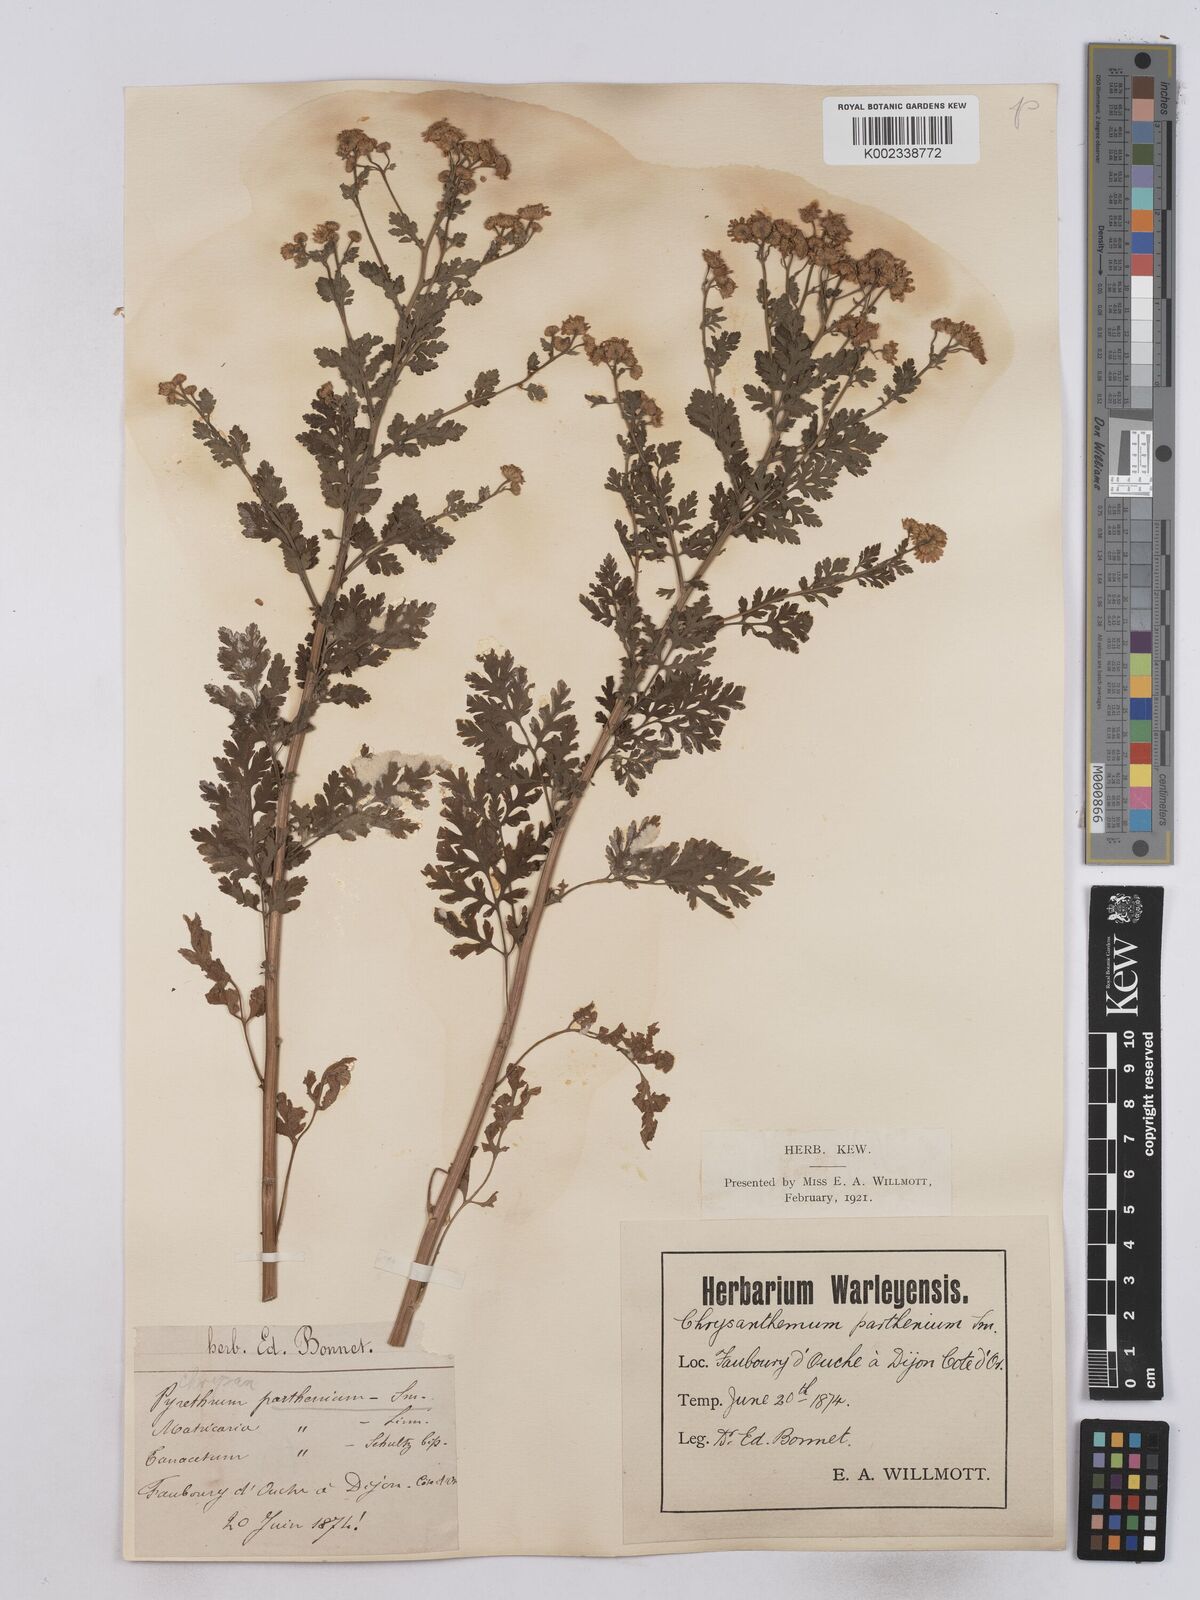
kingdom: Plantae
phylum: Tracheophyta
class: Magnoliopsida
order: Asterales
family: Asteraceae
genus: Tanacetum
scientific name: Tanacetum parthenium
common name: Feverfew
